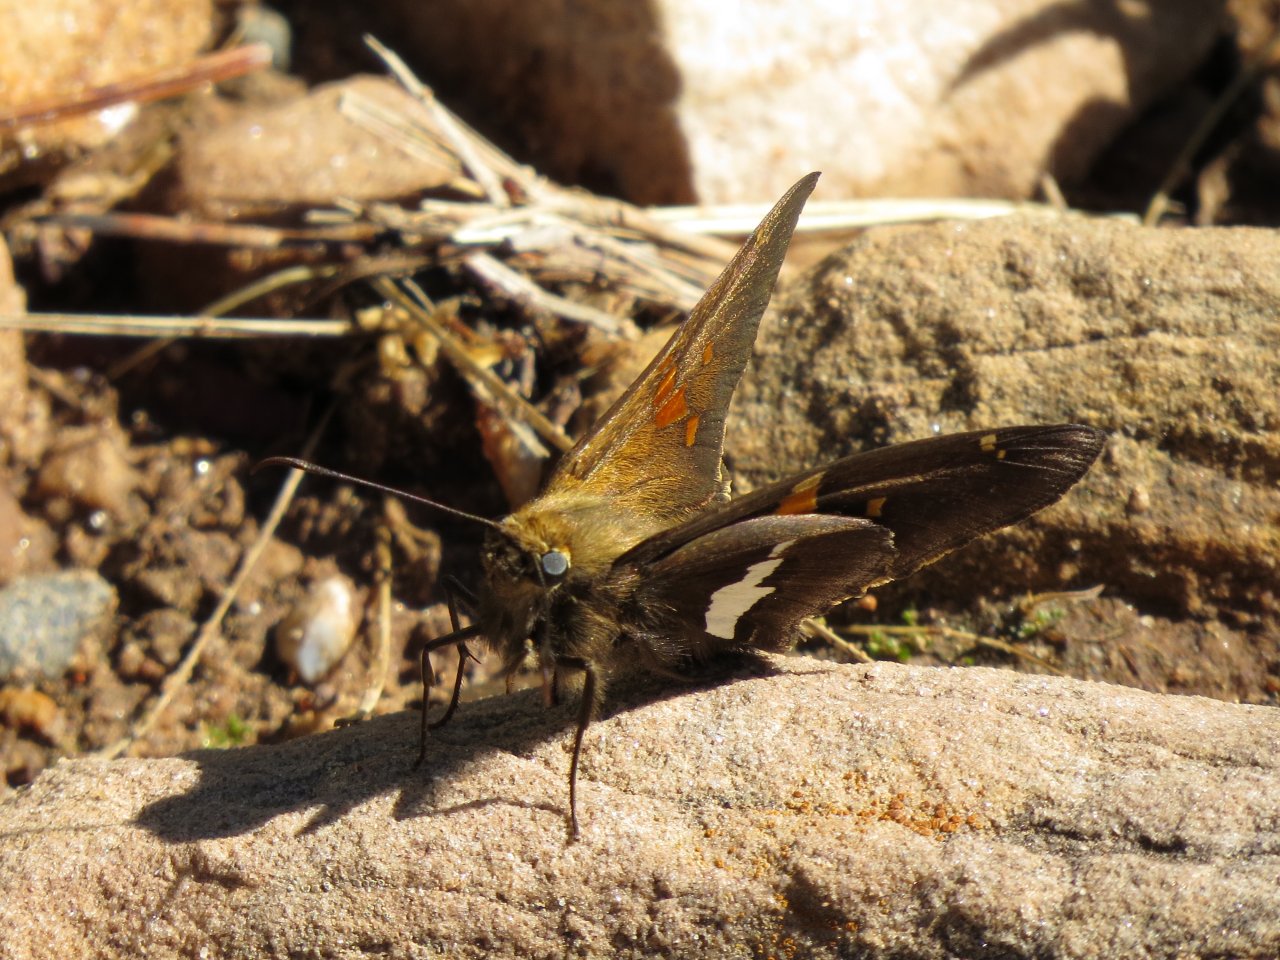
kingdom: Animalia
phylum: Arthropoda
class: Insecta
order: Lepidoptera
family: Hesperiidae
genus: Epargyreus
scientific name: Epargyreus clarus
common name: Silver-spotted Skipper
